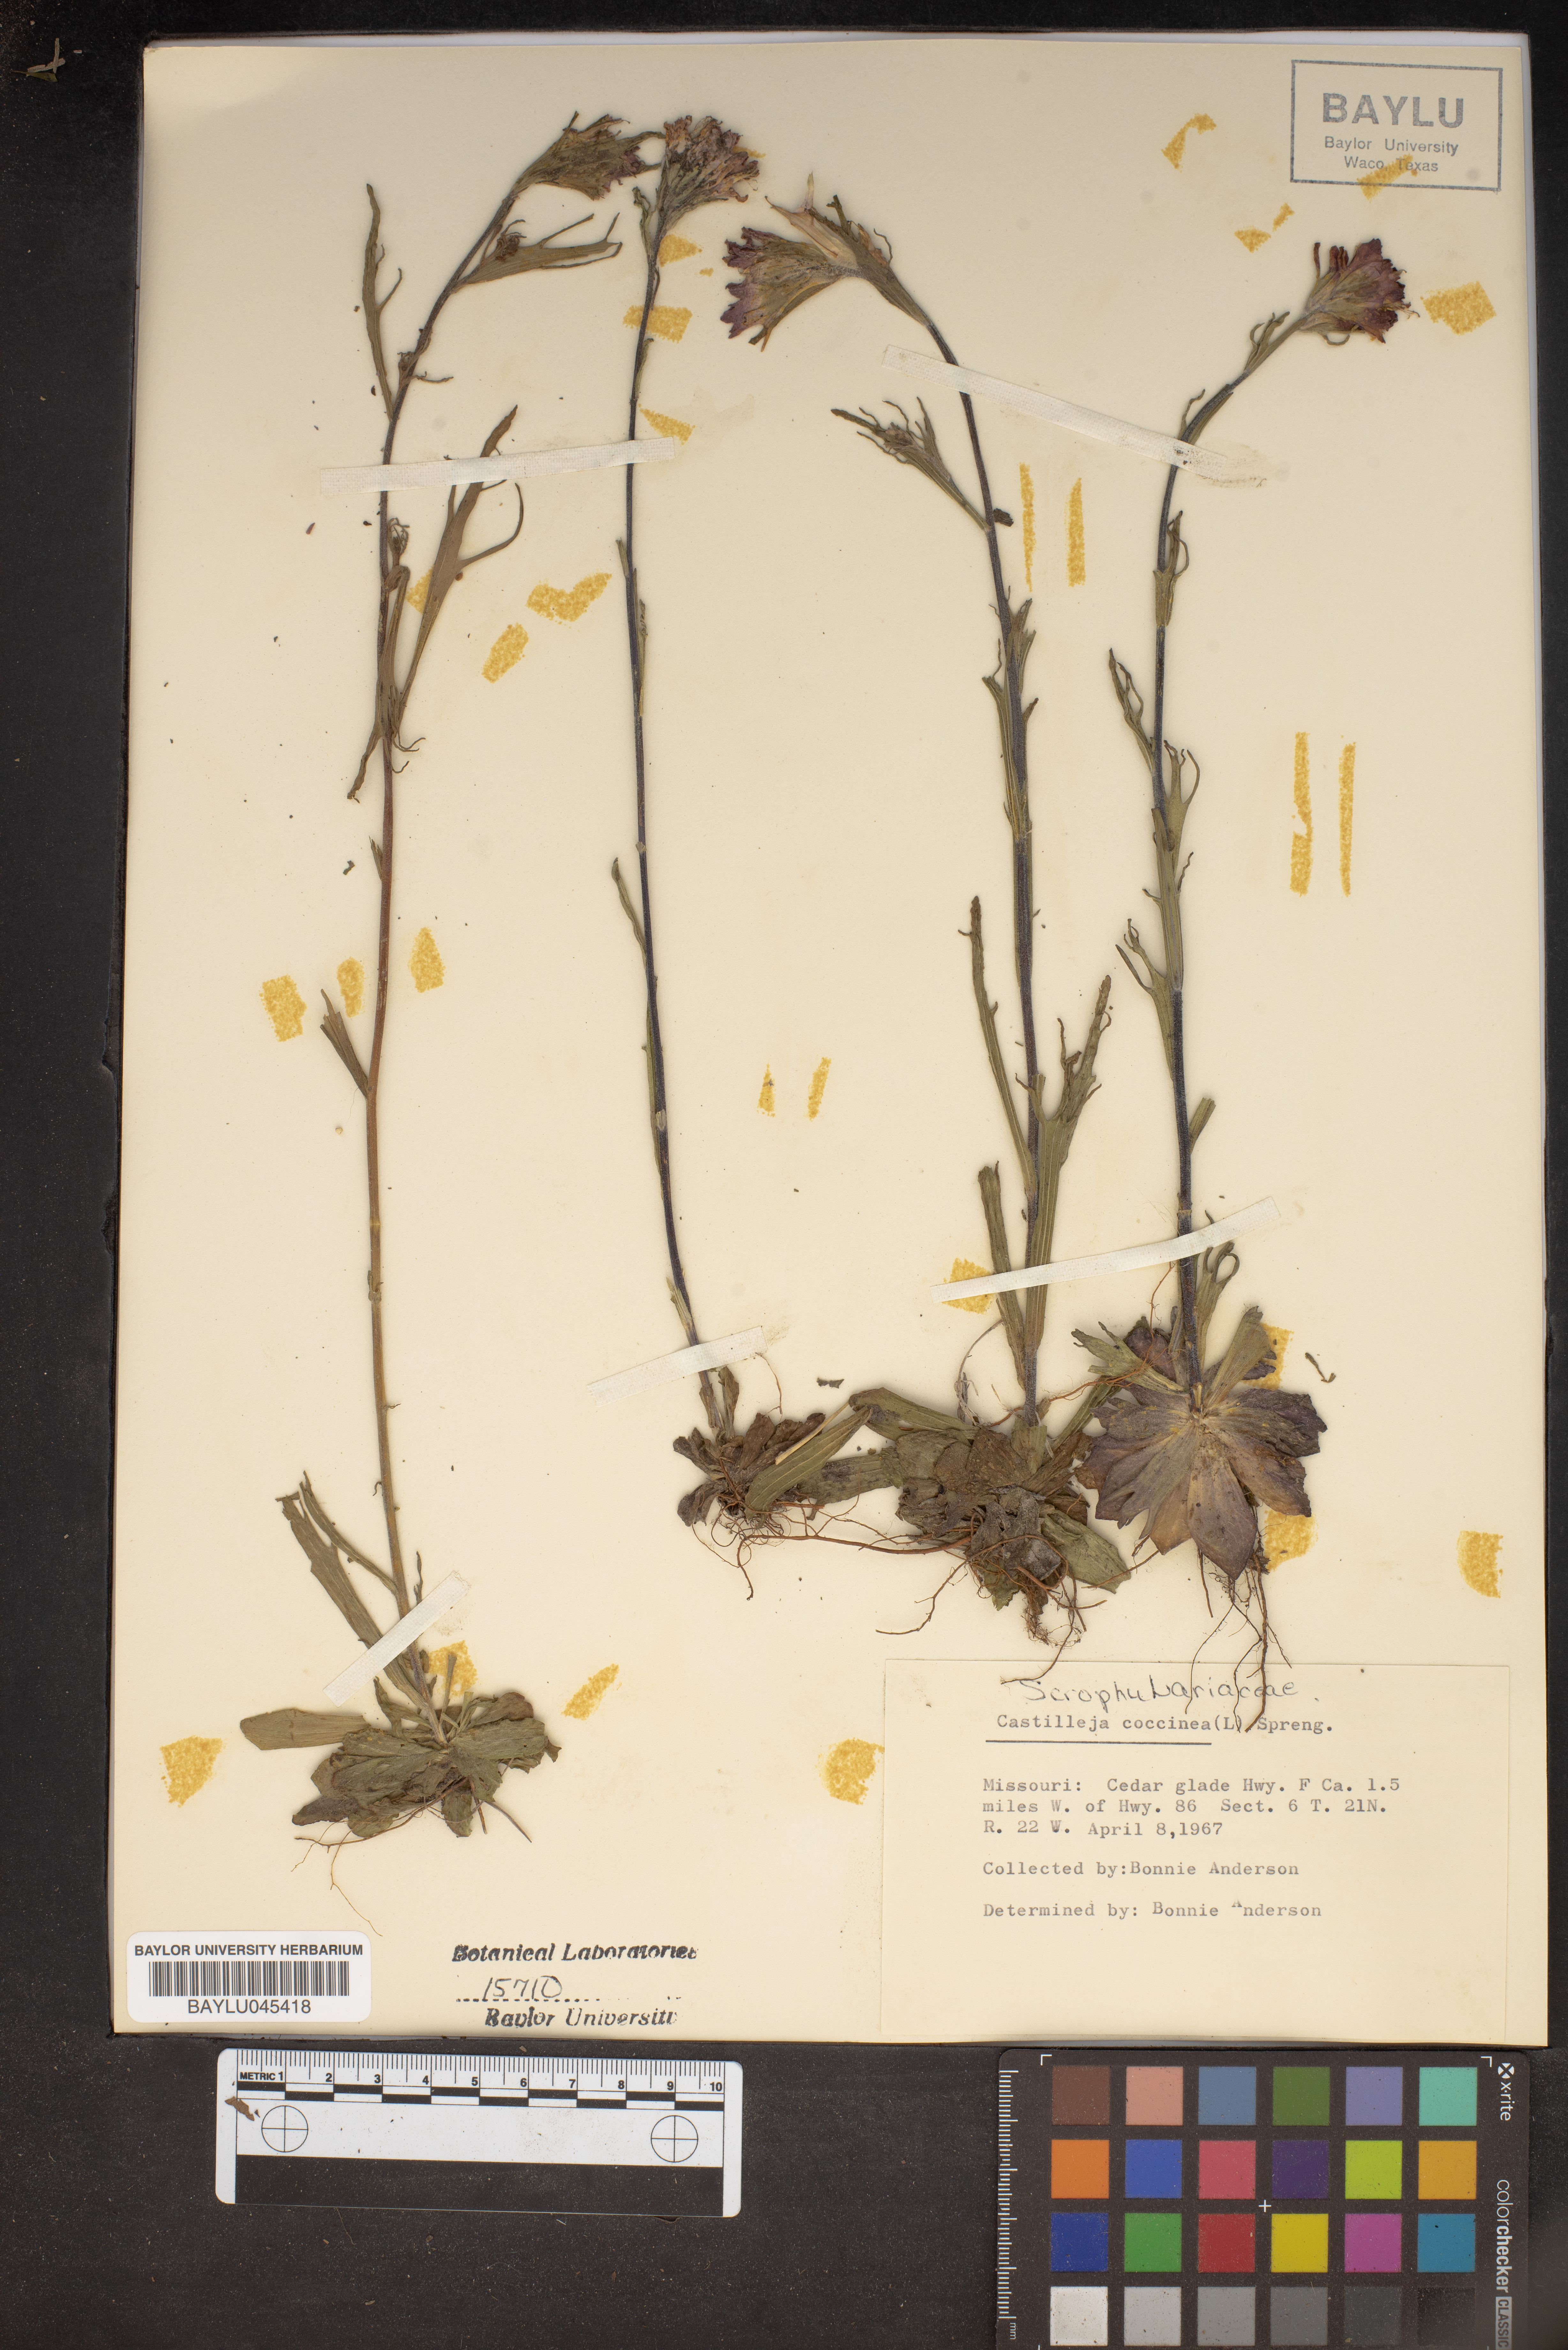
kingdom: Plantae
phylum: Tracheophyta
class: Magnoliopsida
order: Lamiales
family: Orobanchaceae
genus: Castilleja
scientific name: Castilleja coccinea
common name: Scarlet paintbrush
